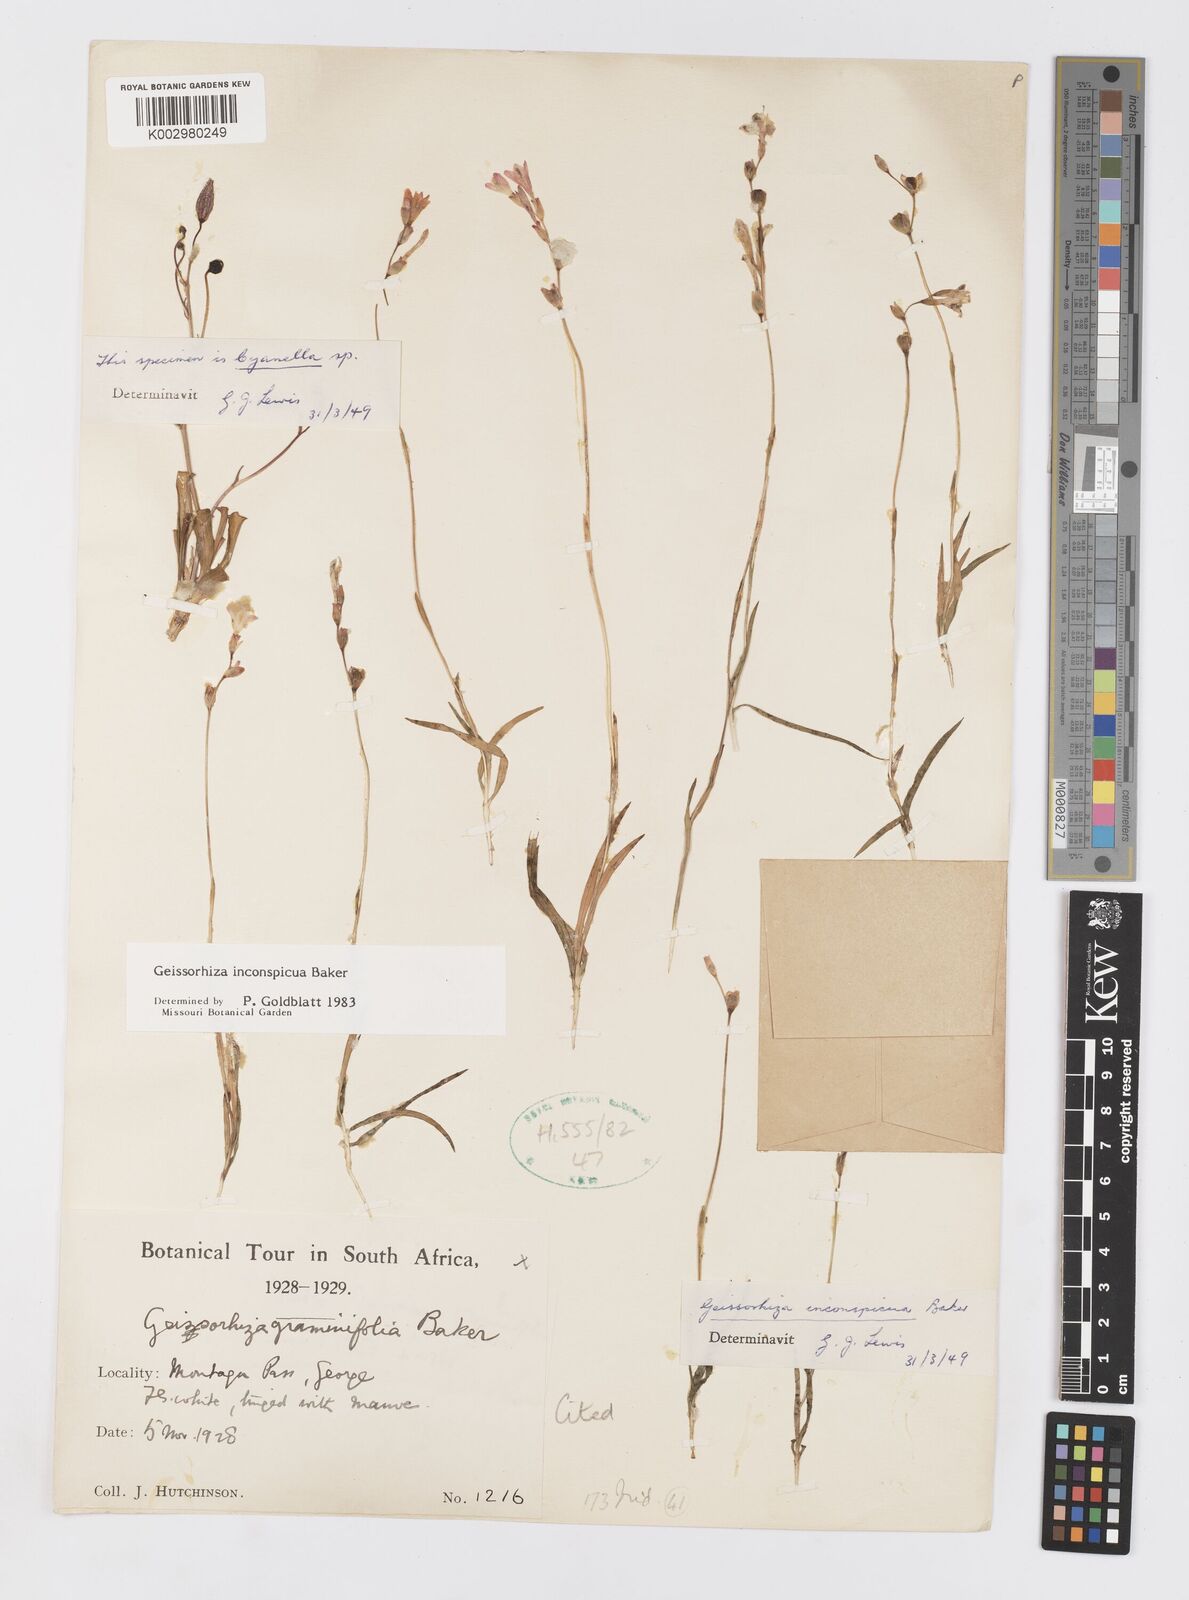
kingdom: Plantae
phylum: Tracheophyta
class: Liliopsida
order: Asparagales
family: Iridaceae
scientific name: Iridaceae
